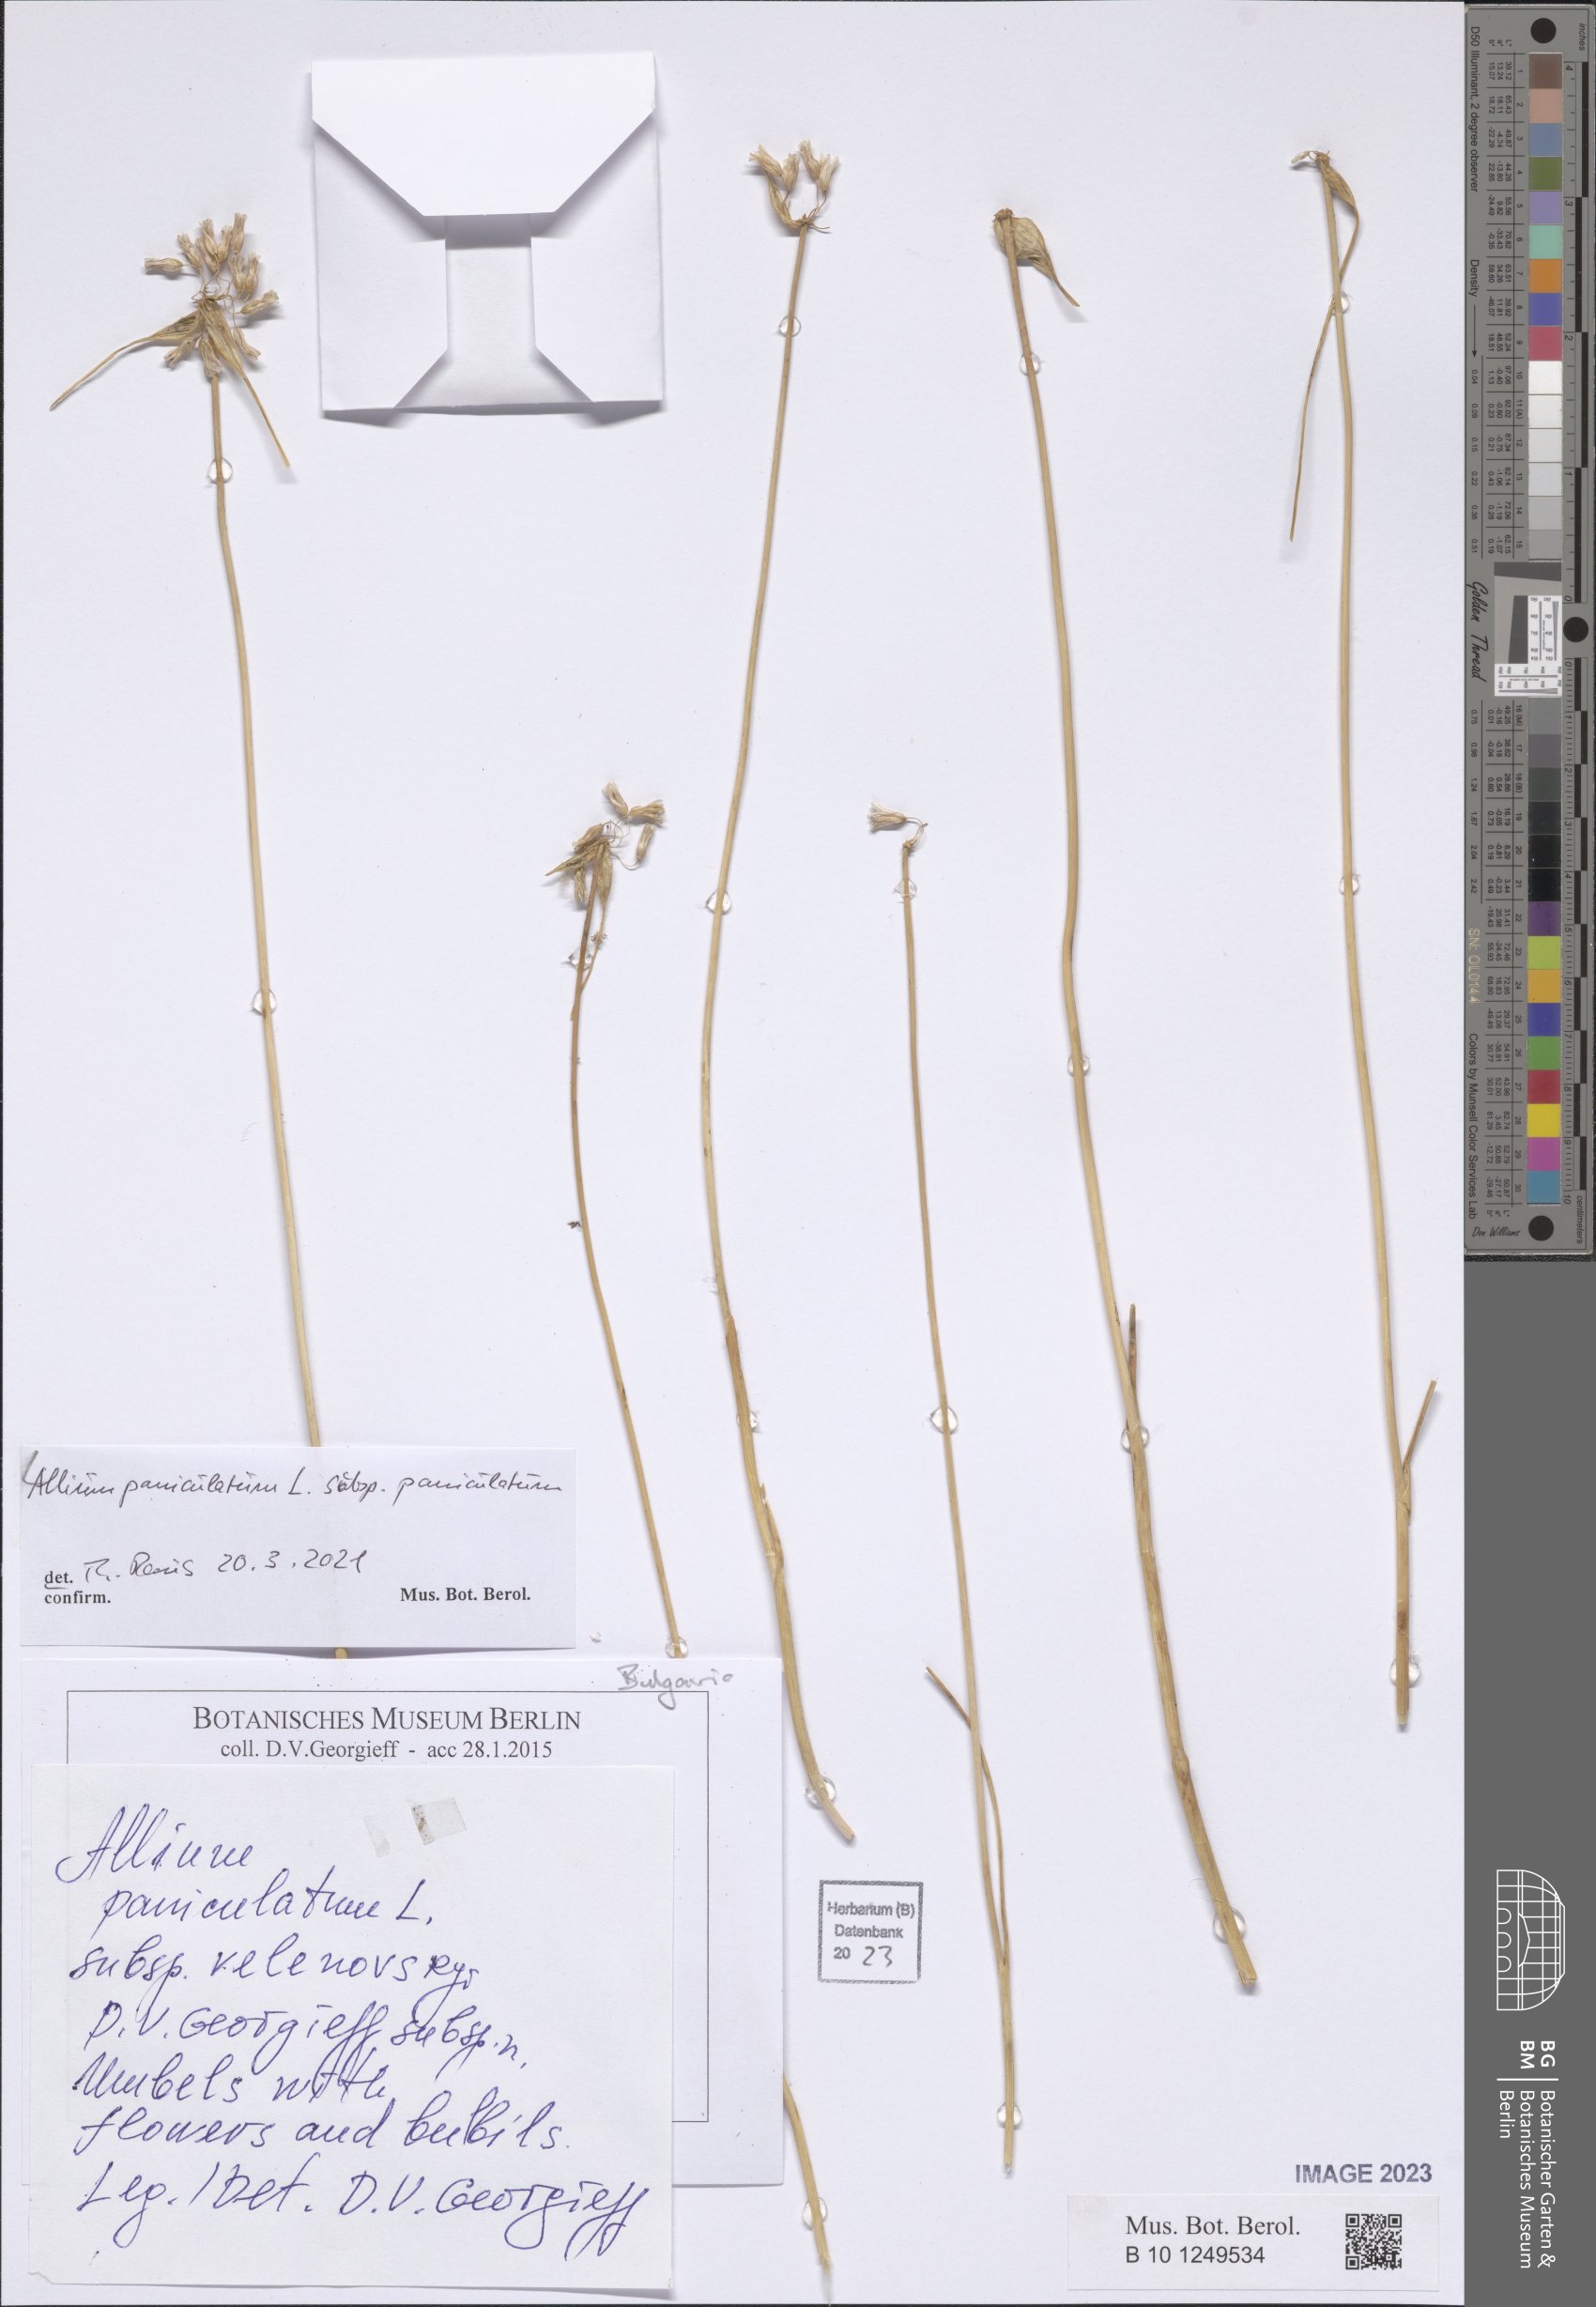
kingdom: Plantae
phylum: Tracheophyta
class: Liliopsida
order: Asparagales
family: Amaryllidaceae
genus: Allium
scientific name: Allium paniculatum
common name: Pale garlic
